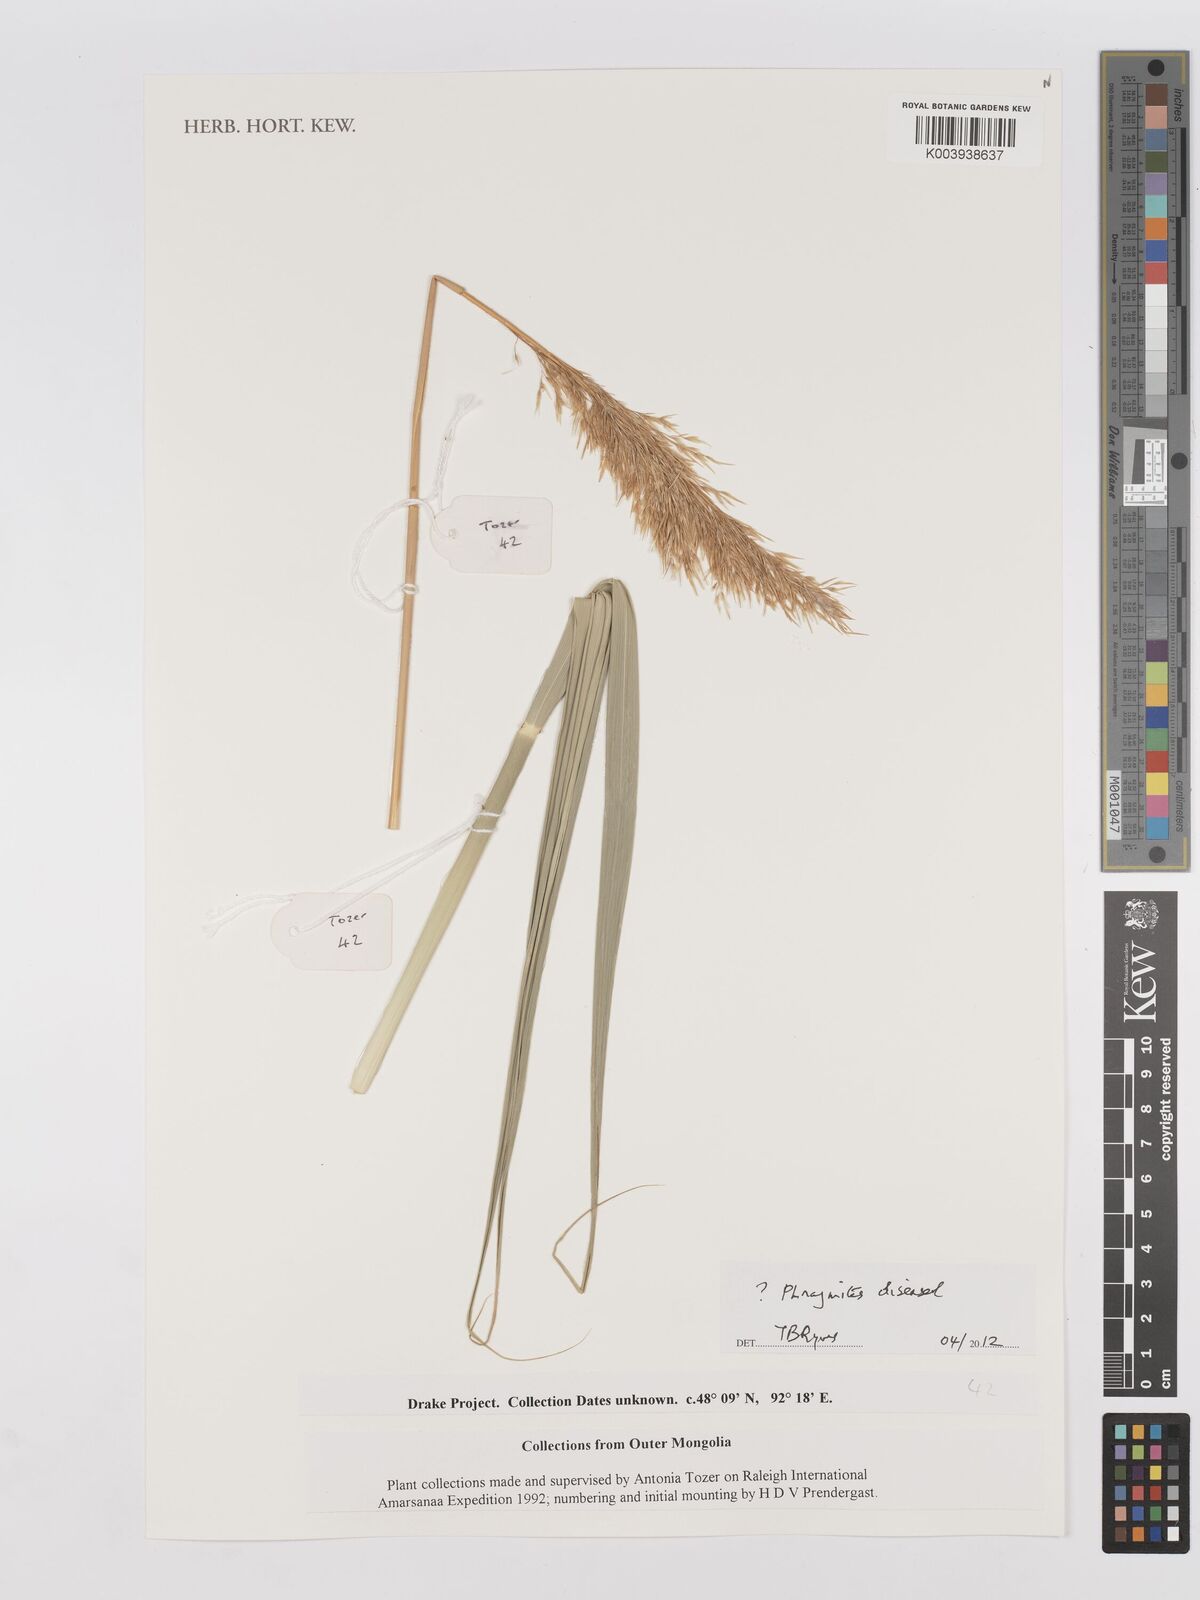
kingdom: Plantae
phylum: Tracheophyta
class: Liliopsida
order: Poales
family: Poaceae
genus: Phragmites
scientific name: Phragmites australis
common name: Common reed
